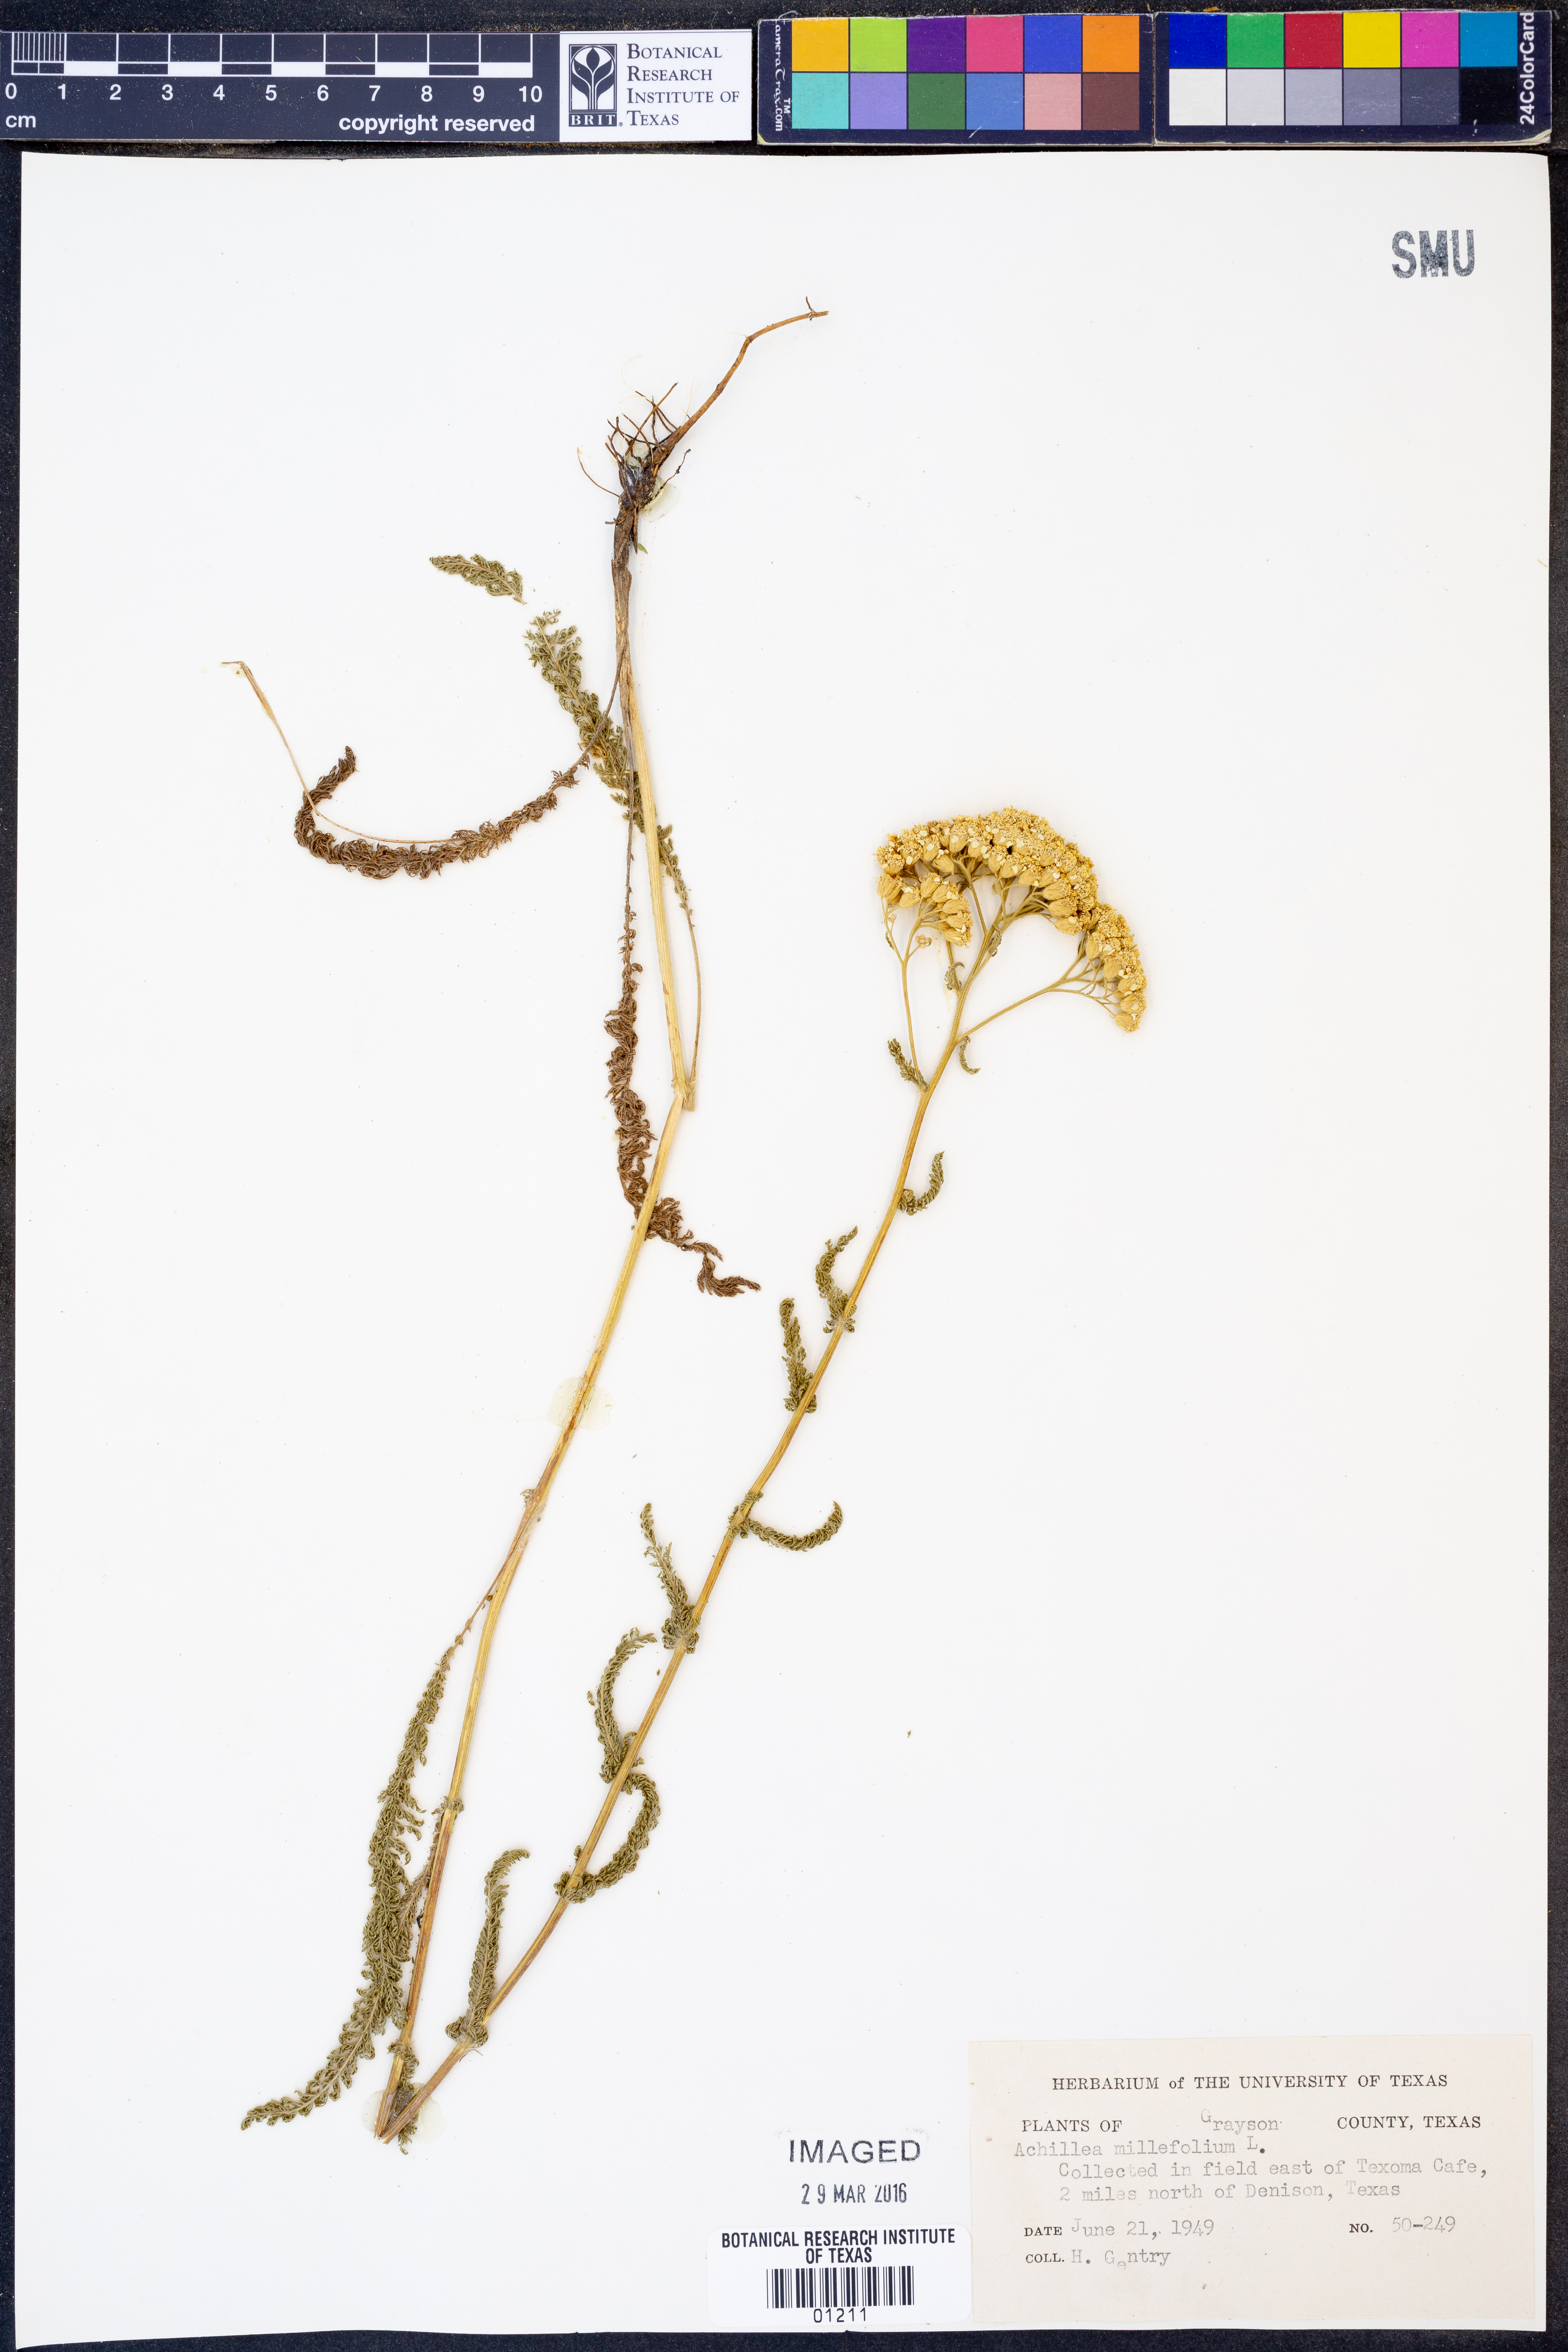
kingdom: Plantae
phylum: Tracheophyta
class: Magnoliopsida
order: Asterales
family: Asteraceae
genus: Achillea
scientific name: Achillea millefolium
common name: Yarrow
